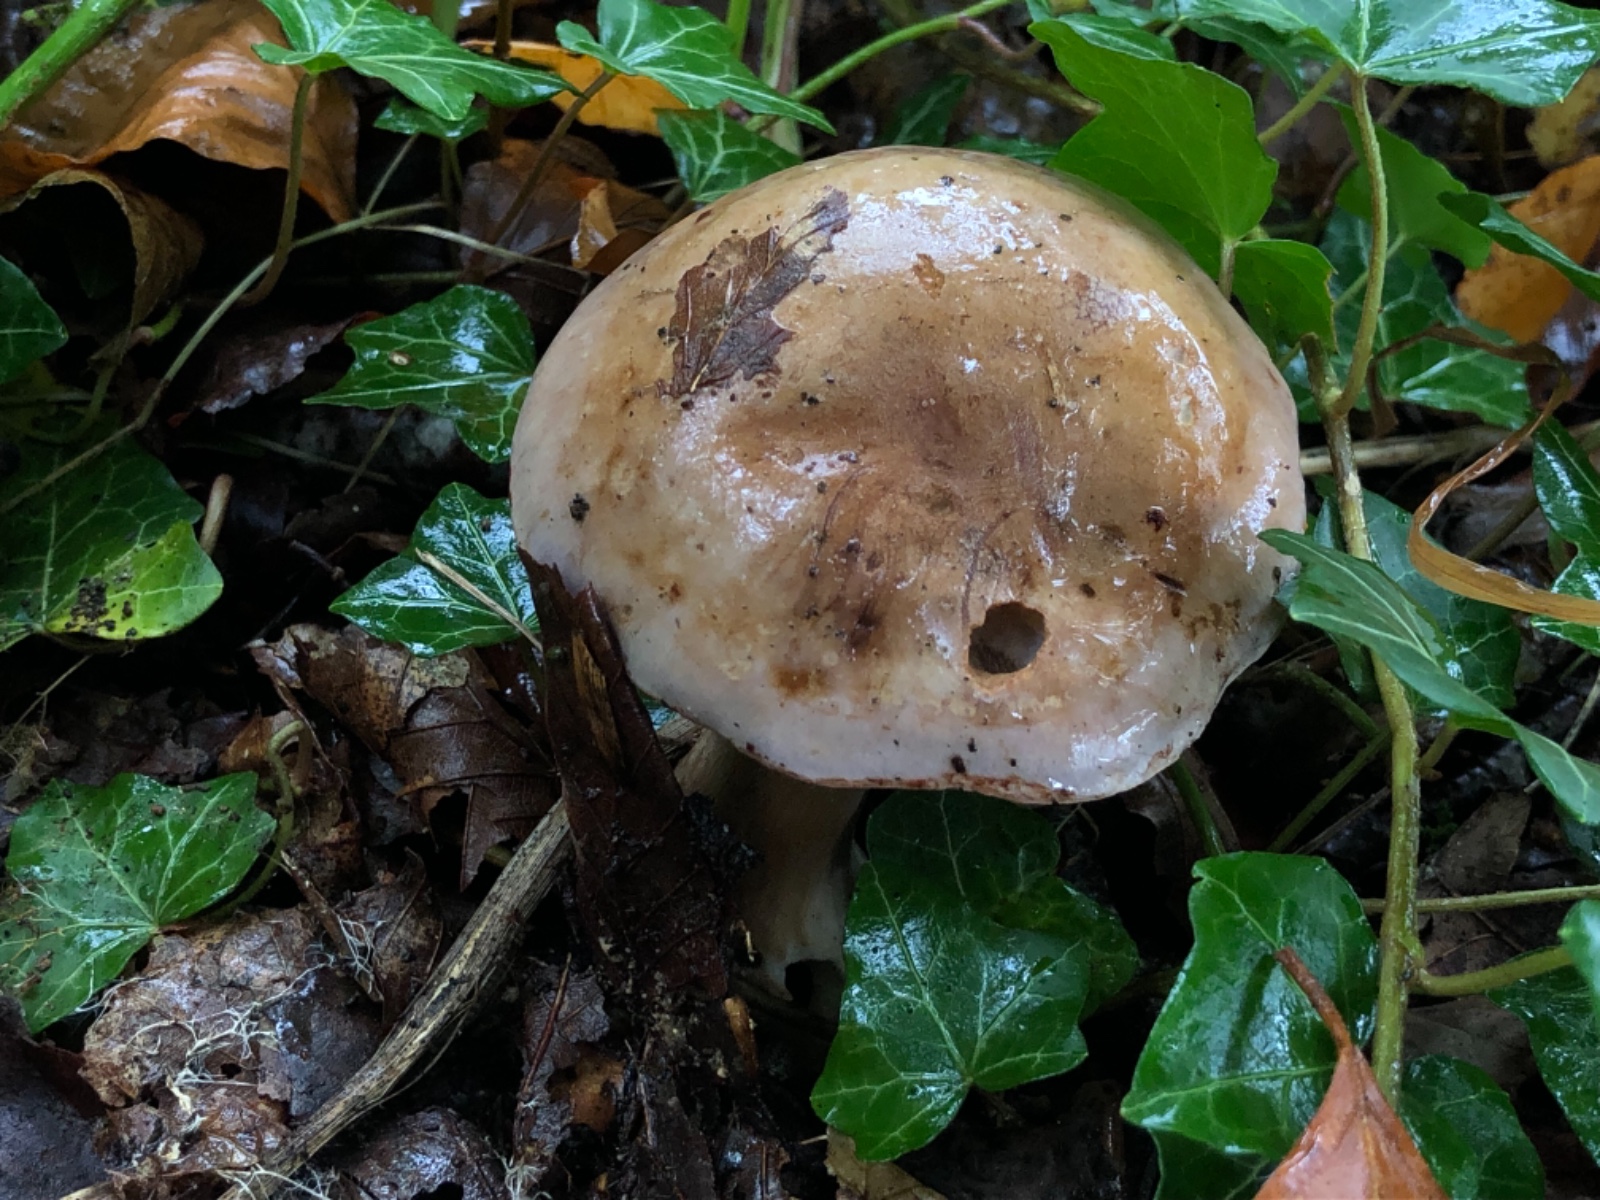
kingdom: Fungi
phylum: Basidiomycota
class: Agaricomycetes
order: Agaricales
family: Cortinariaceae
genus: Cortinarius
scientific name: Cortinarius largus
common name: violetrandet slørhat
